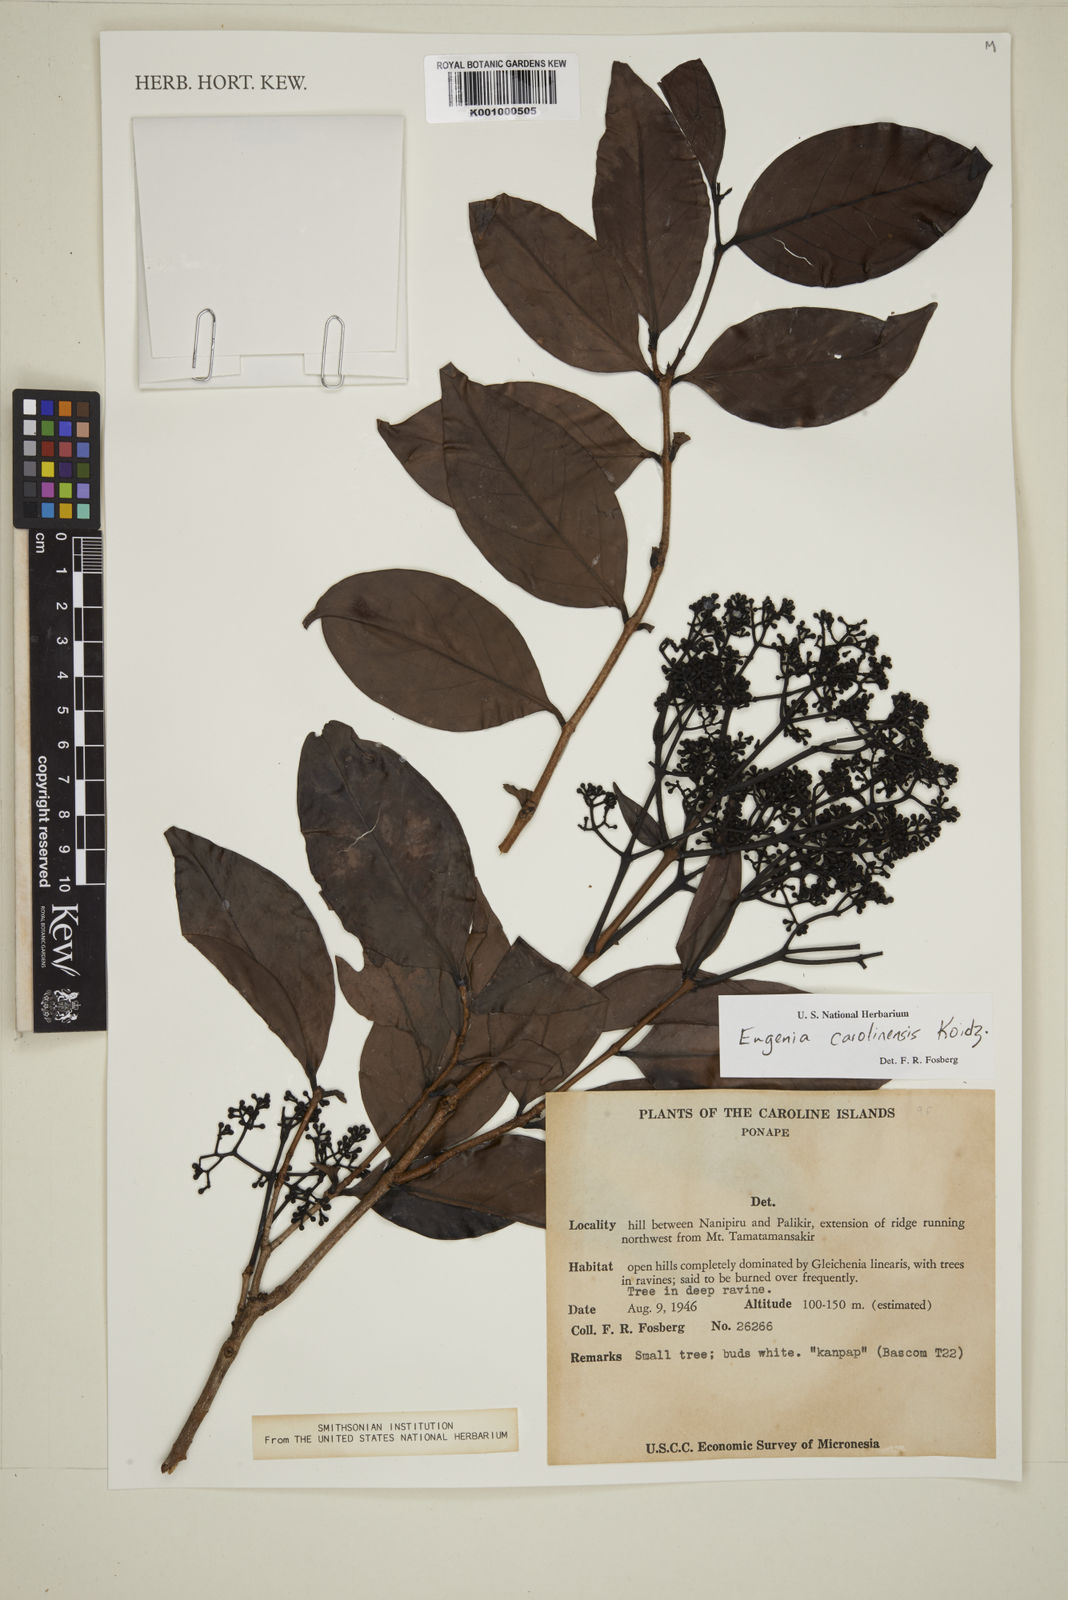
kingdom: Plantae
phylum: Tracheophyta
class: Magnoliopsida
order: Myrtales
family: Myrtaceae
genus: Syzygium
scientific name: Syzygium carolinense
